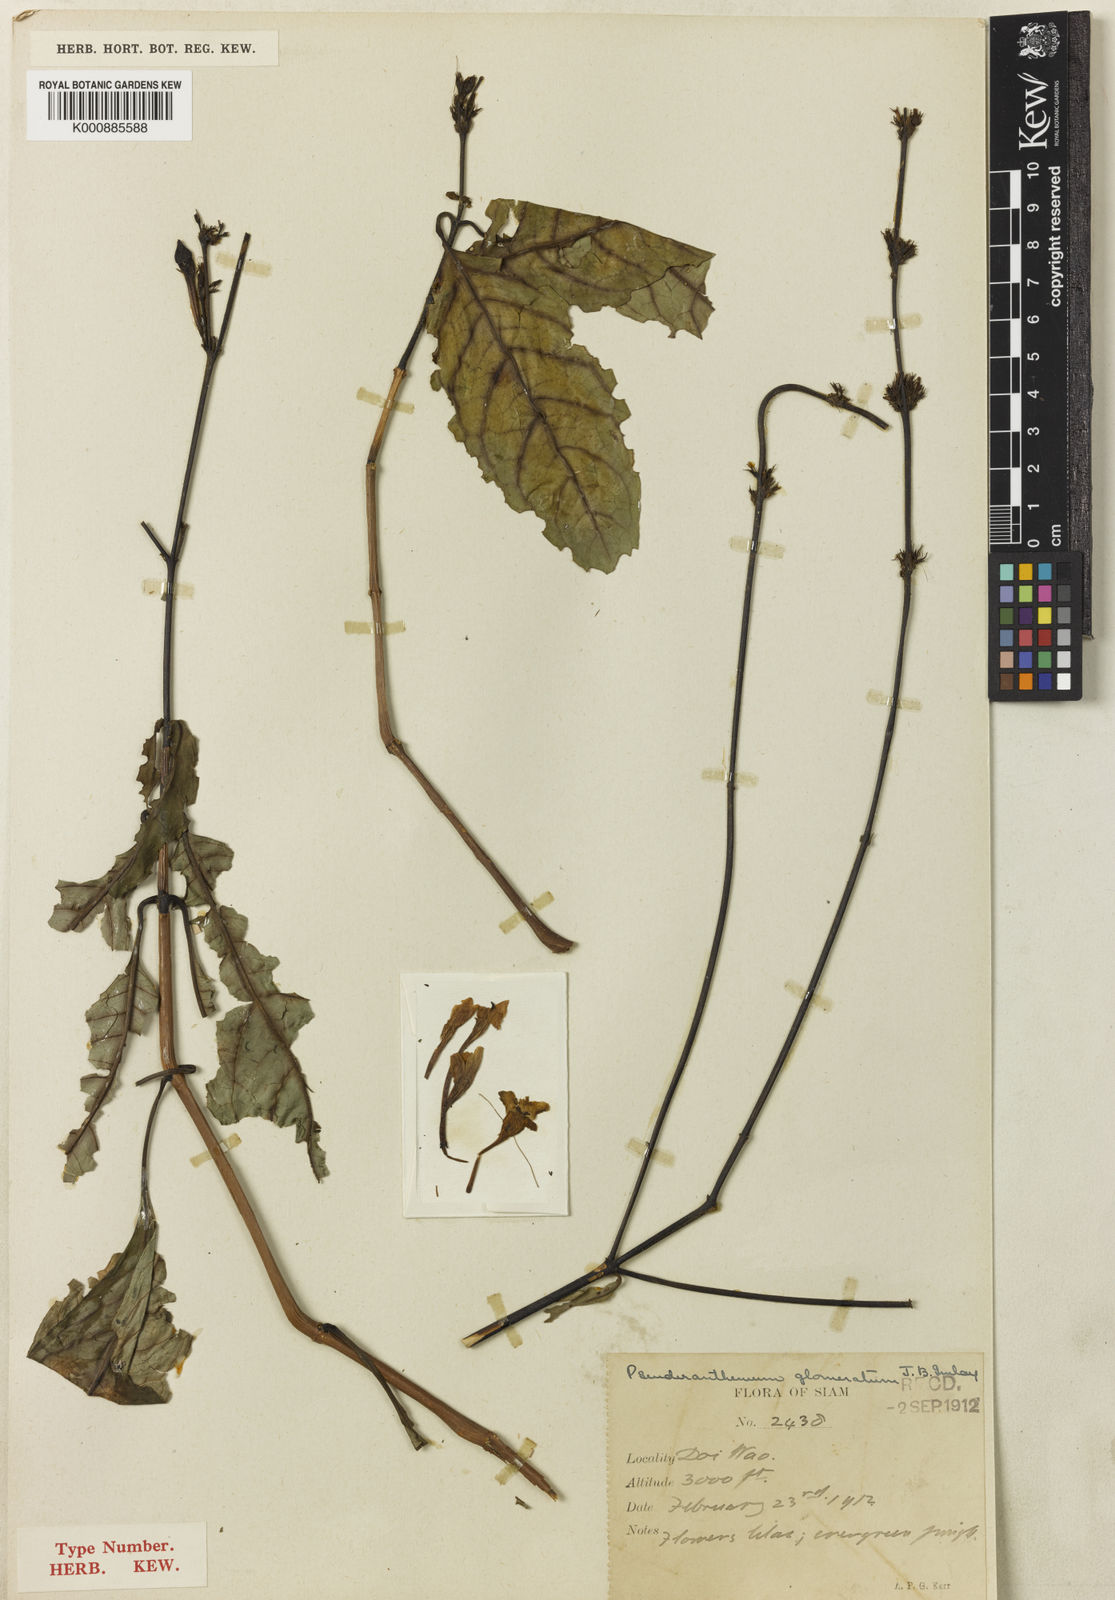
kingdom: Plantae
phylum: Tracheophyta
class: Magnoliopsida
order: Lamiales
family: Acanthaceae
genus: Pseuderanthemum
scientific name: Pseuderanthemum glomeratum
